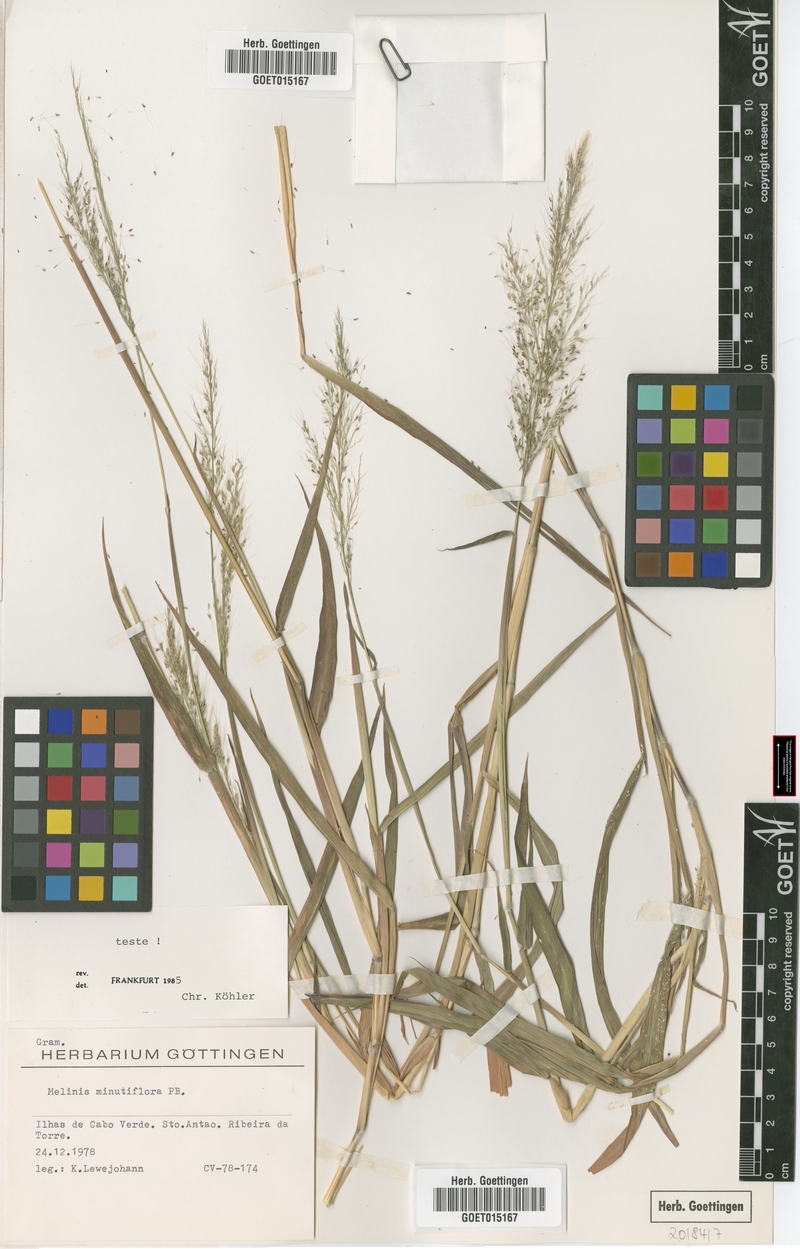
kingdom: Plantae
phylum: Tracheophyta
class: Liliopsida
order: Poales
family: Poaceae
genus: Melinis
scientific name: Melinis minutiflora
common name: Molassesgrass
